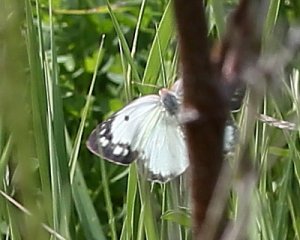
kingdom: Animalia
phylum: Arthropoda
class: Insecta
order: Lepidoptera
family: Pieridae
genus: Colias
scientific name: Colias philodice
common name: Clouded Sulphur
